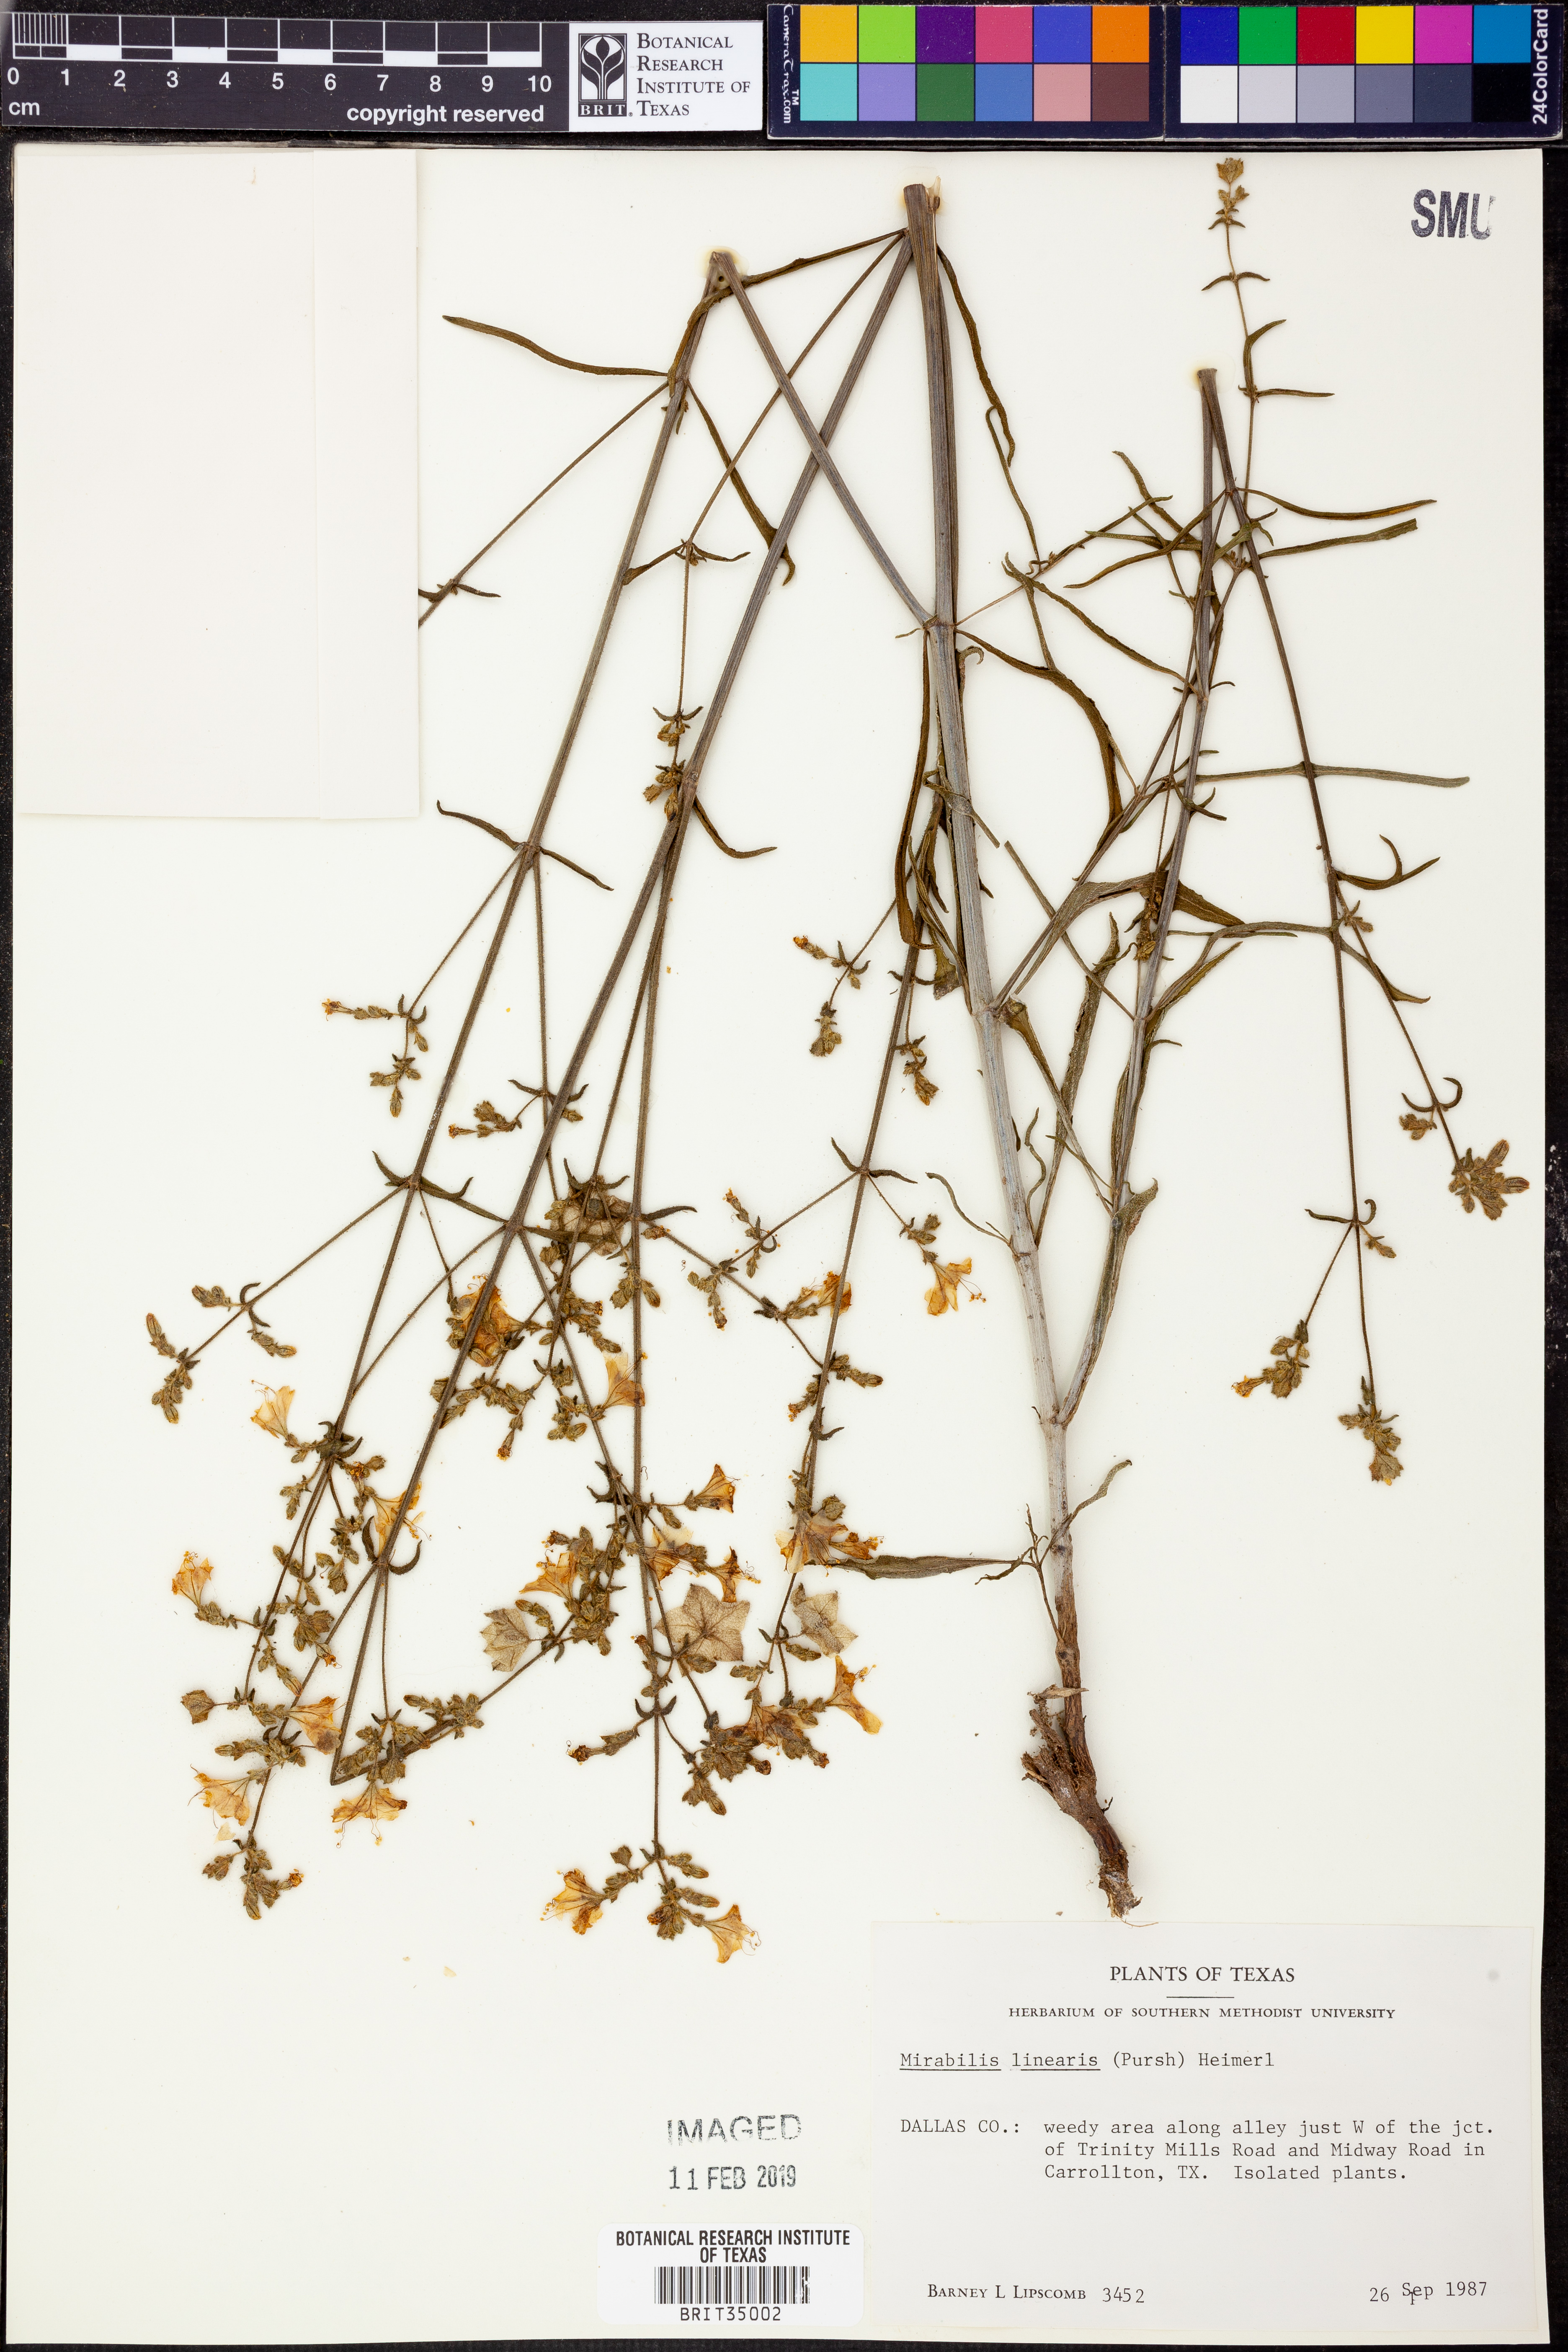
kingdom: Plantae
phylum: Tracheophyta
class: Magnoliopsida
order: Caryophyllales
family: Nyctaginaceae
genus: Mirabilis
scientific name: Mirabilis linearis
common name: Linear-leaved four-o'clock
